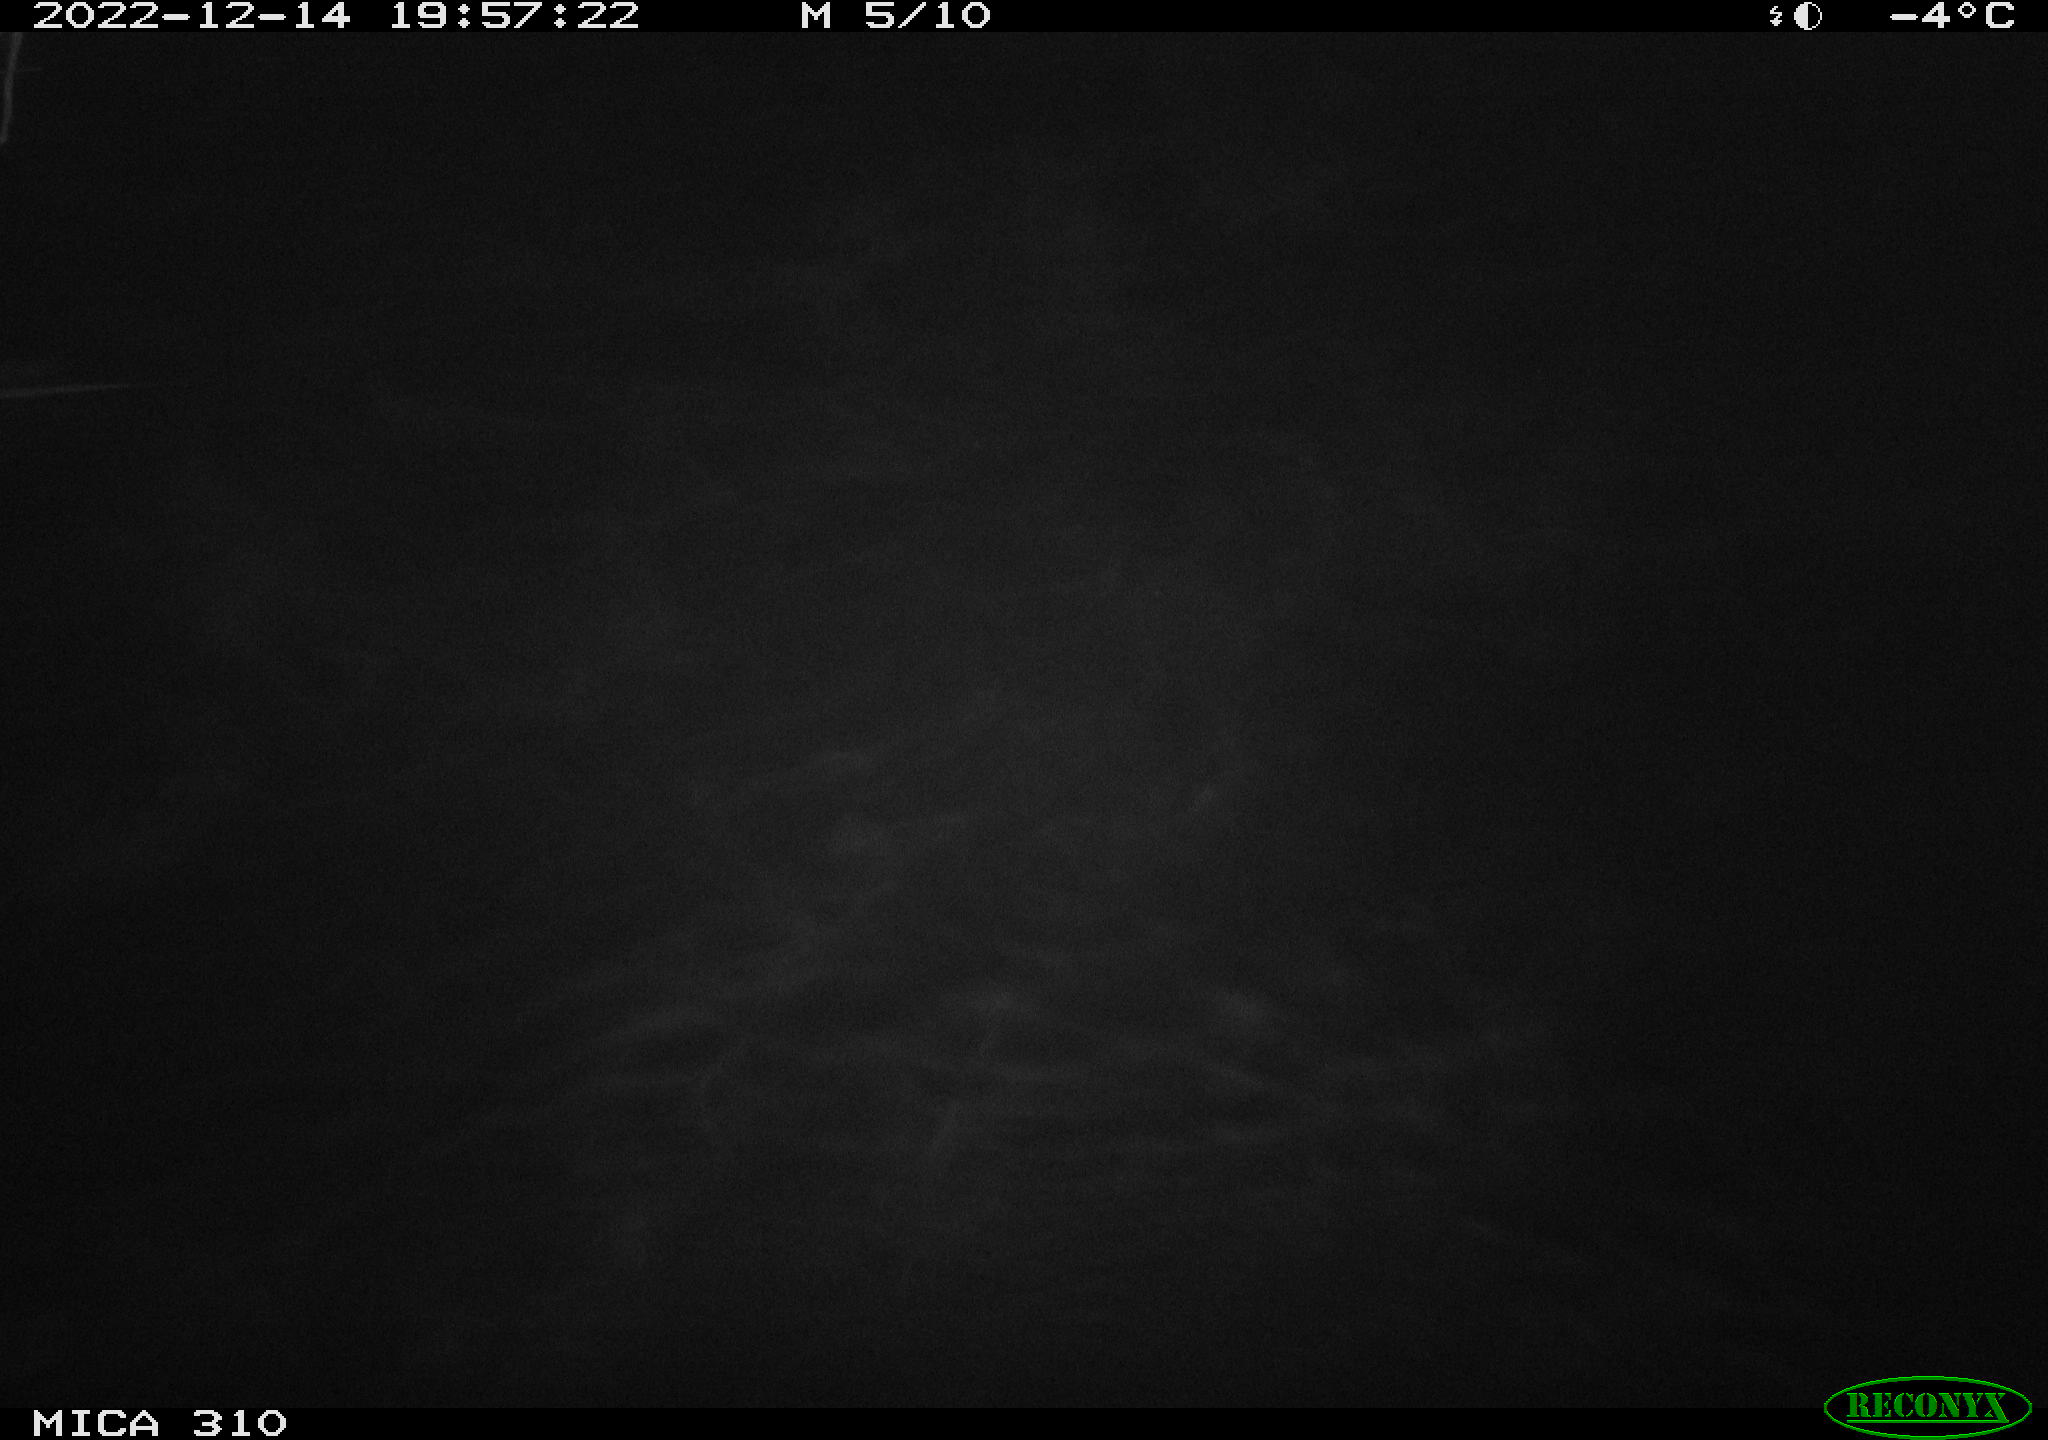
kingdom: Animalia
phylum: Chordata
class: Mammalia
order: Rodentia
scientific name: Rodentia
